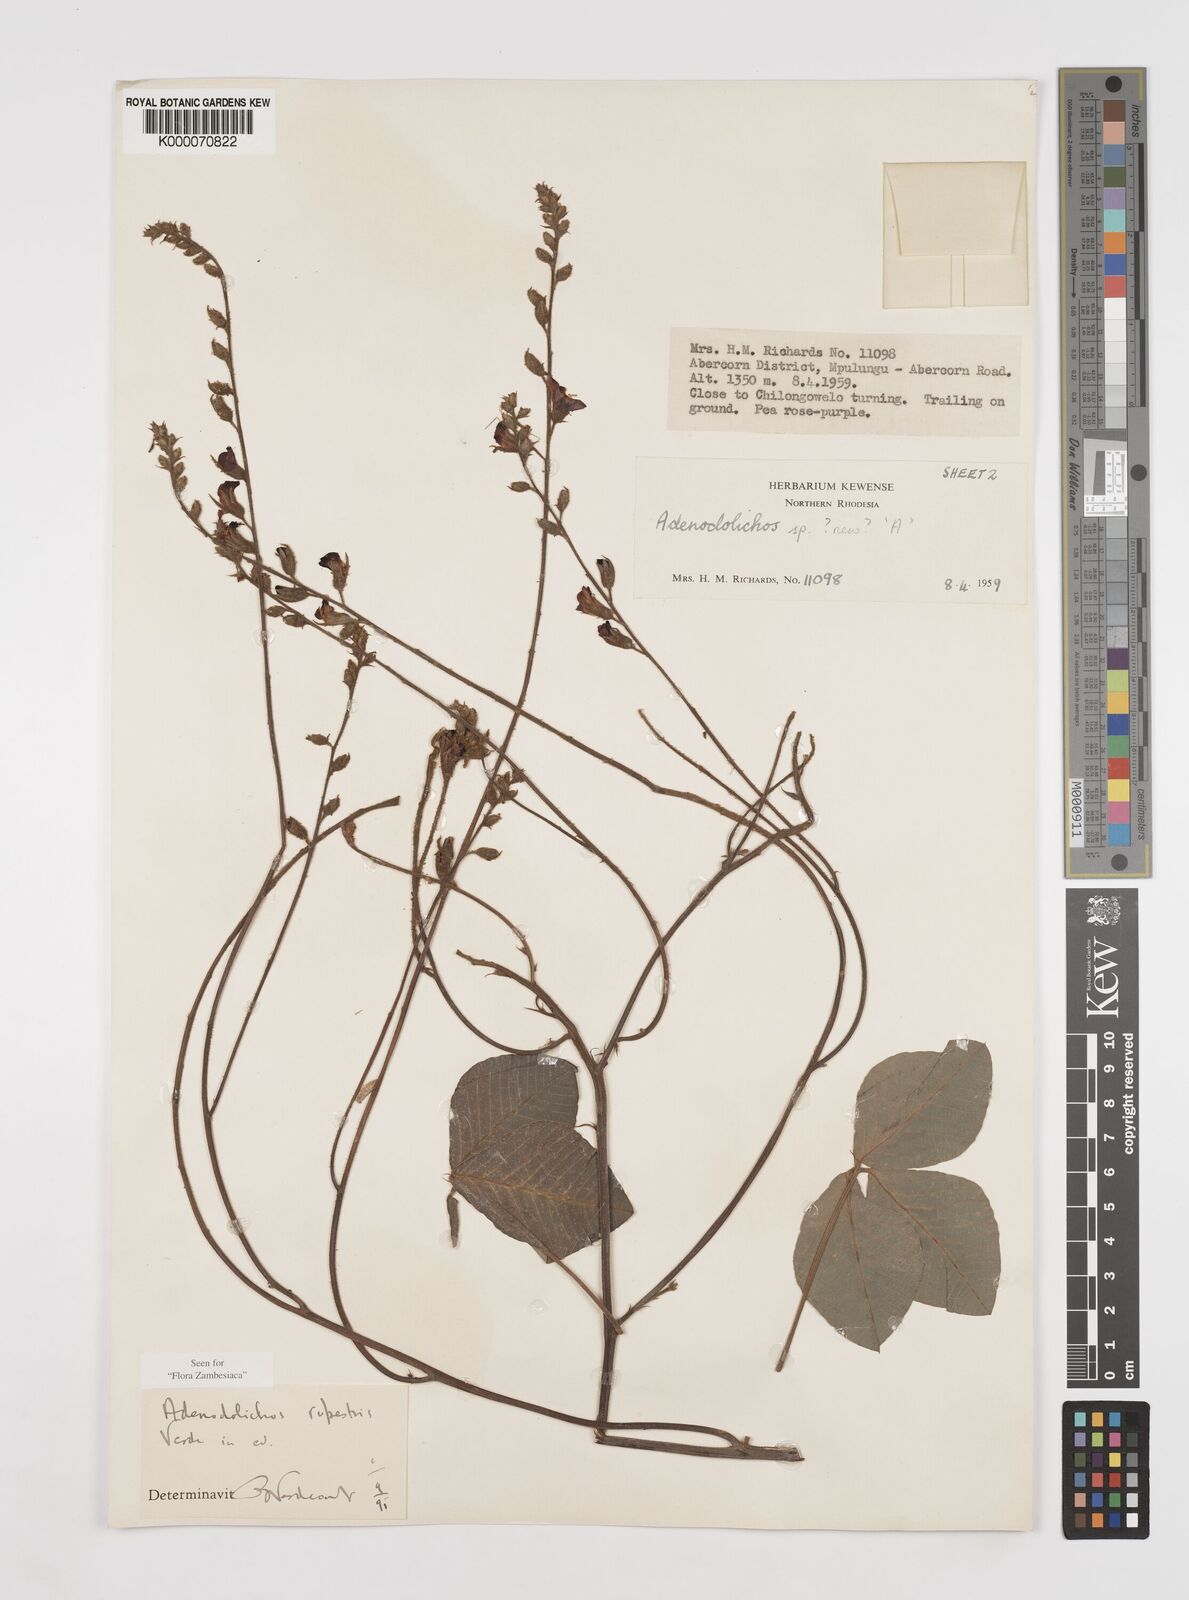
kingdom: Plantae
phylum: Tracheophyta
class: Magnoliopsida
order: Fabales
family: Fabaceae
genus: Adenodolichos
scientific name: Adenodolichos rupestris
